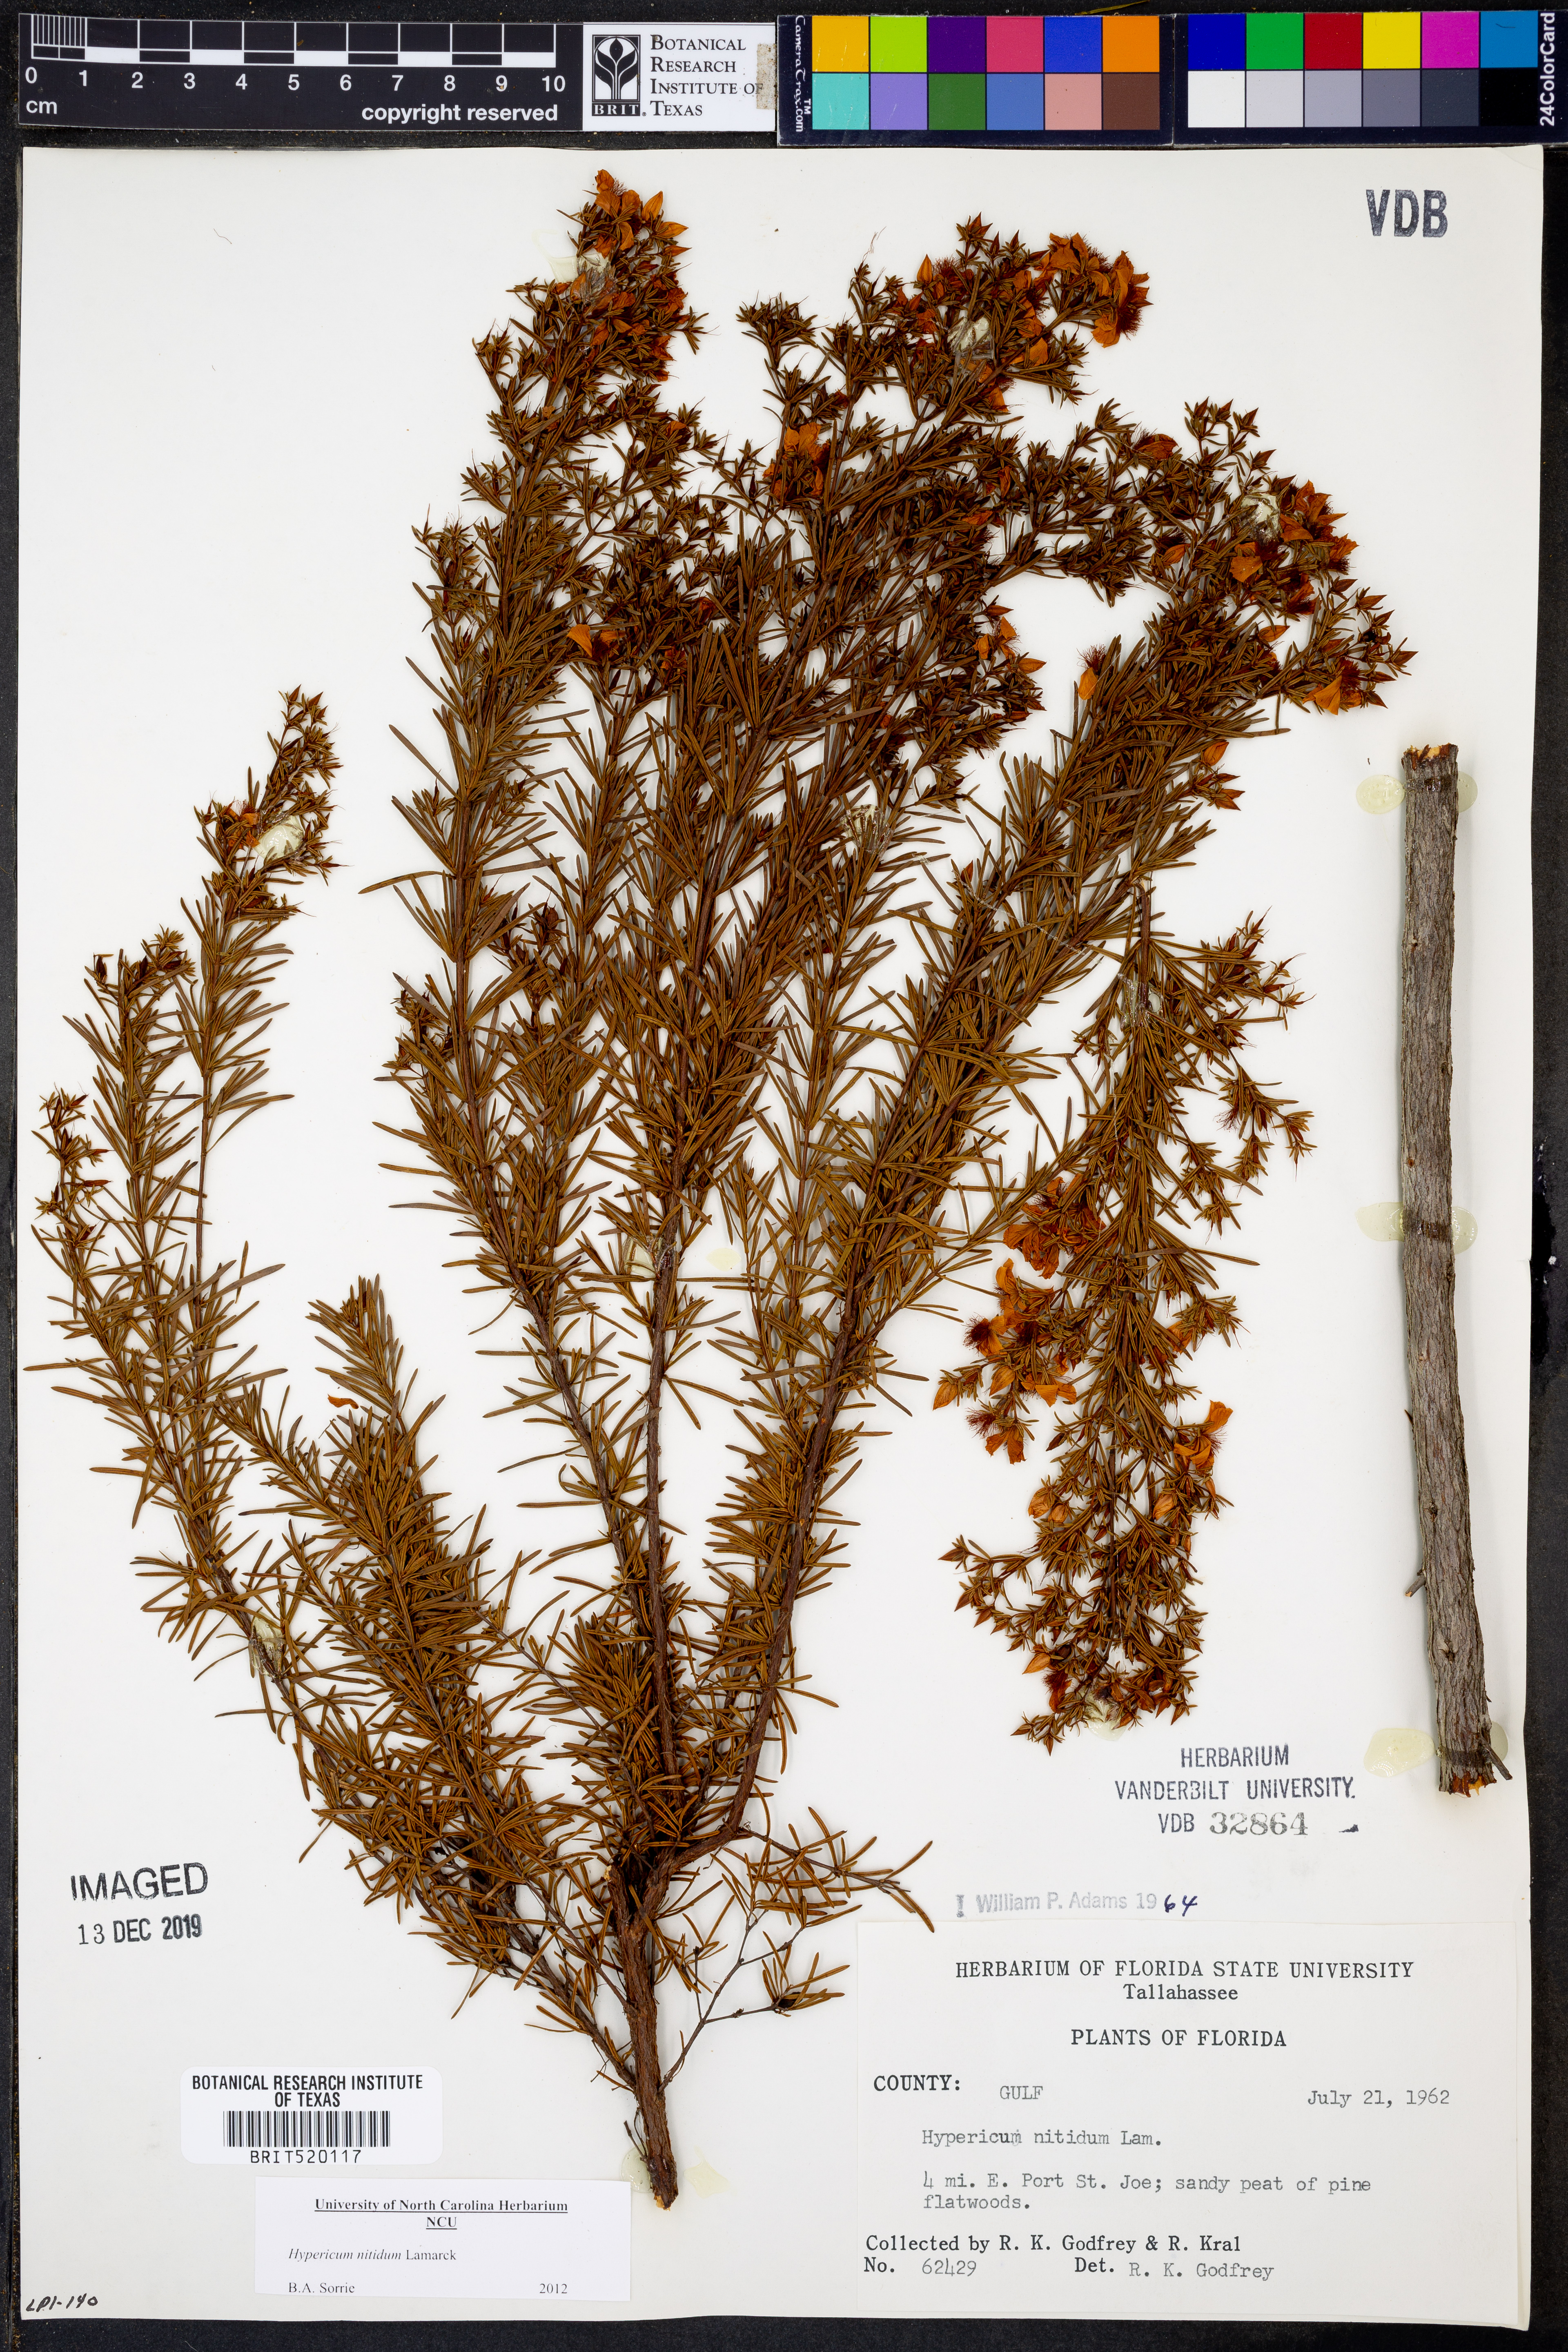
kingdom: Plantae
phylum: Tracheophyta
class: Magnoliopsida
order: Malpighiales
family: Hypericaceae
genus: Hypericum
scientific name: Hypericum nitidum
